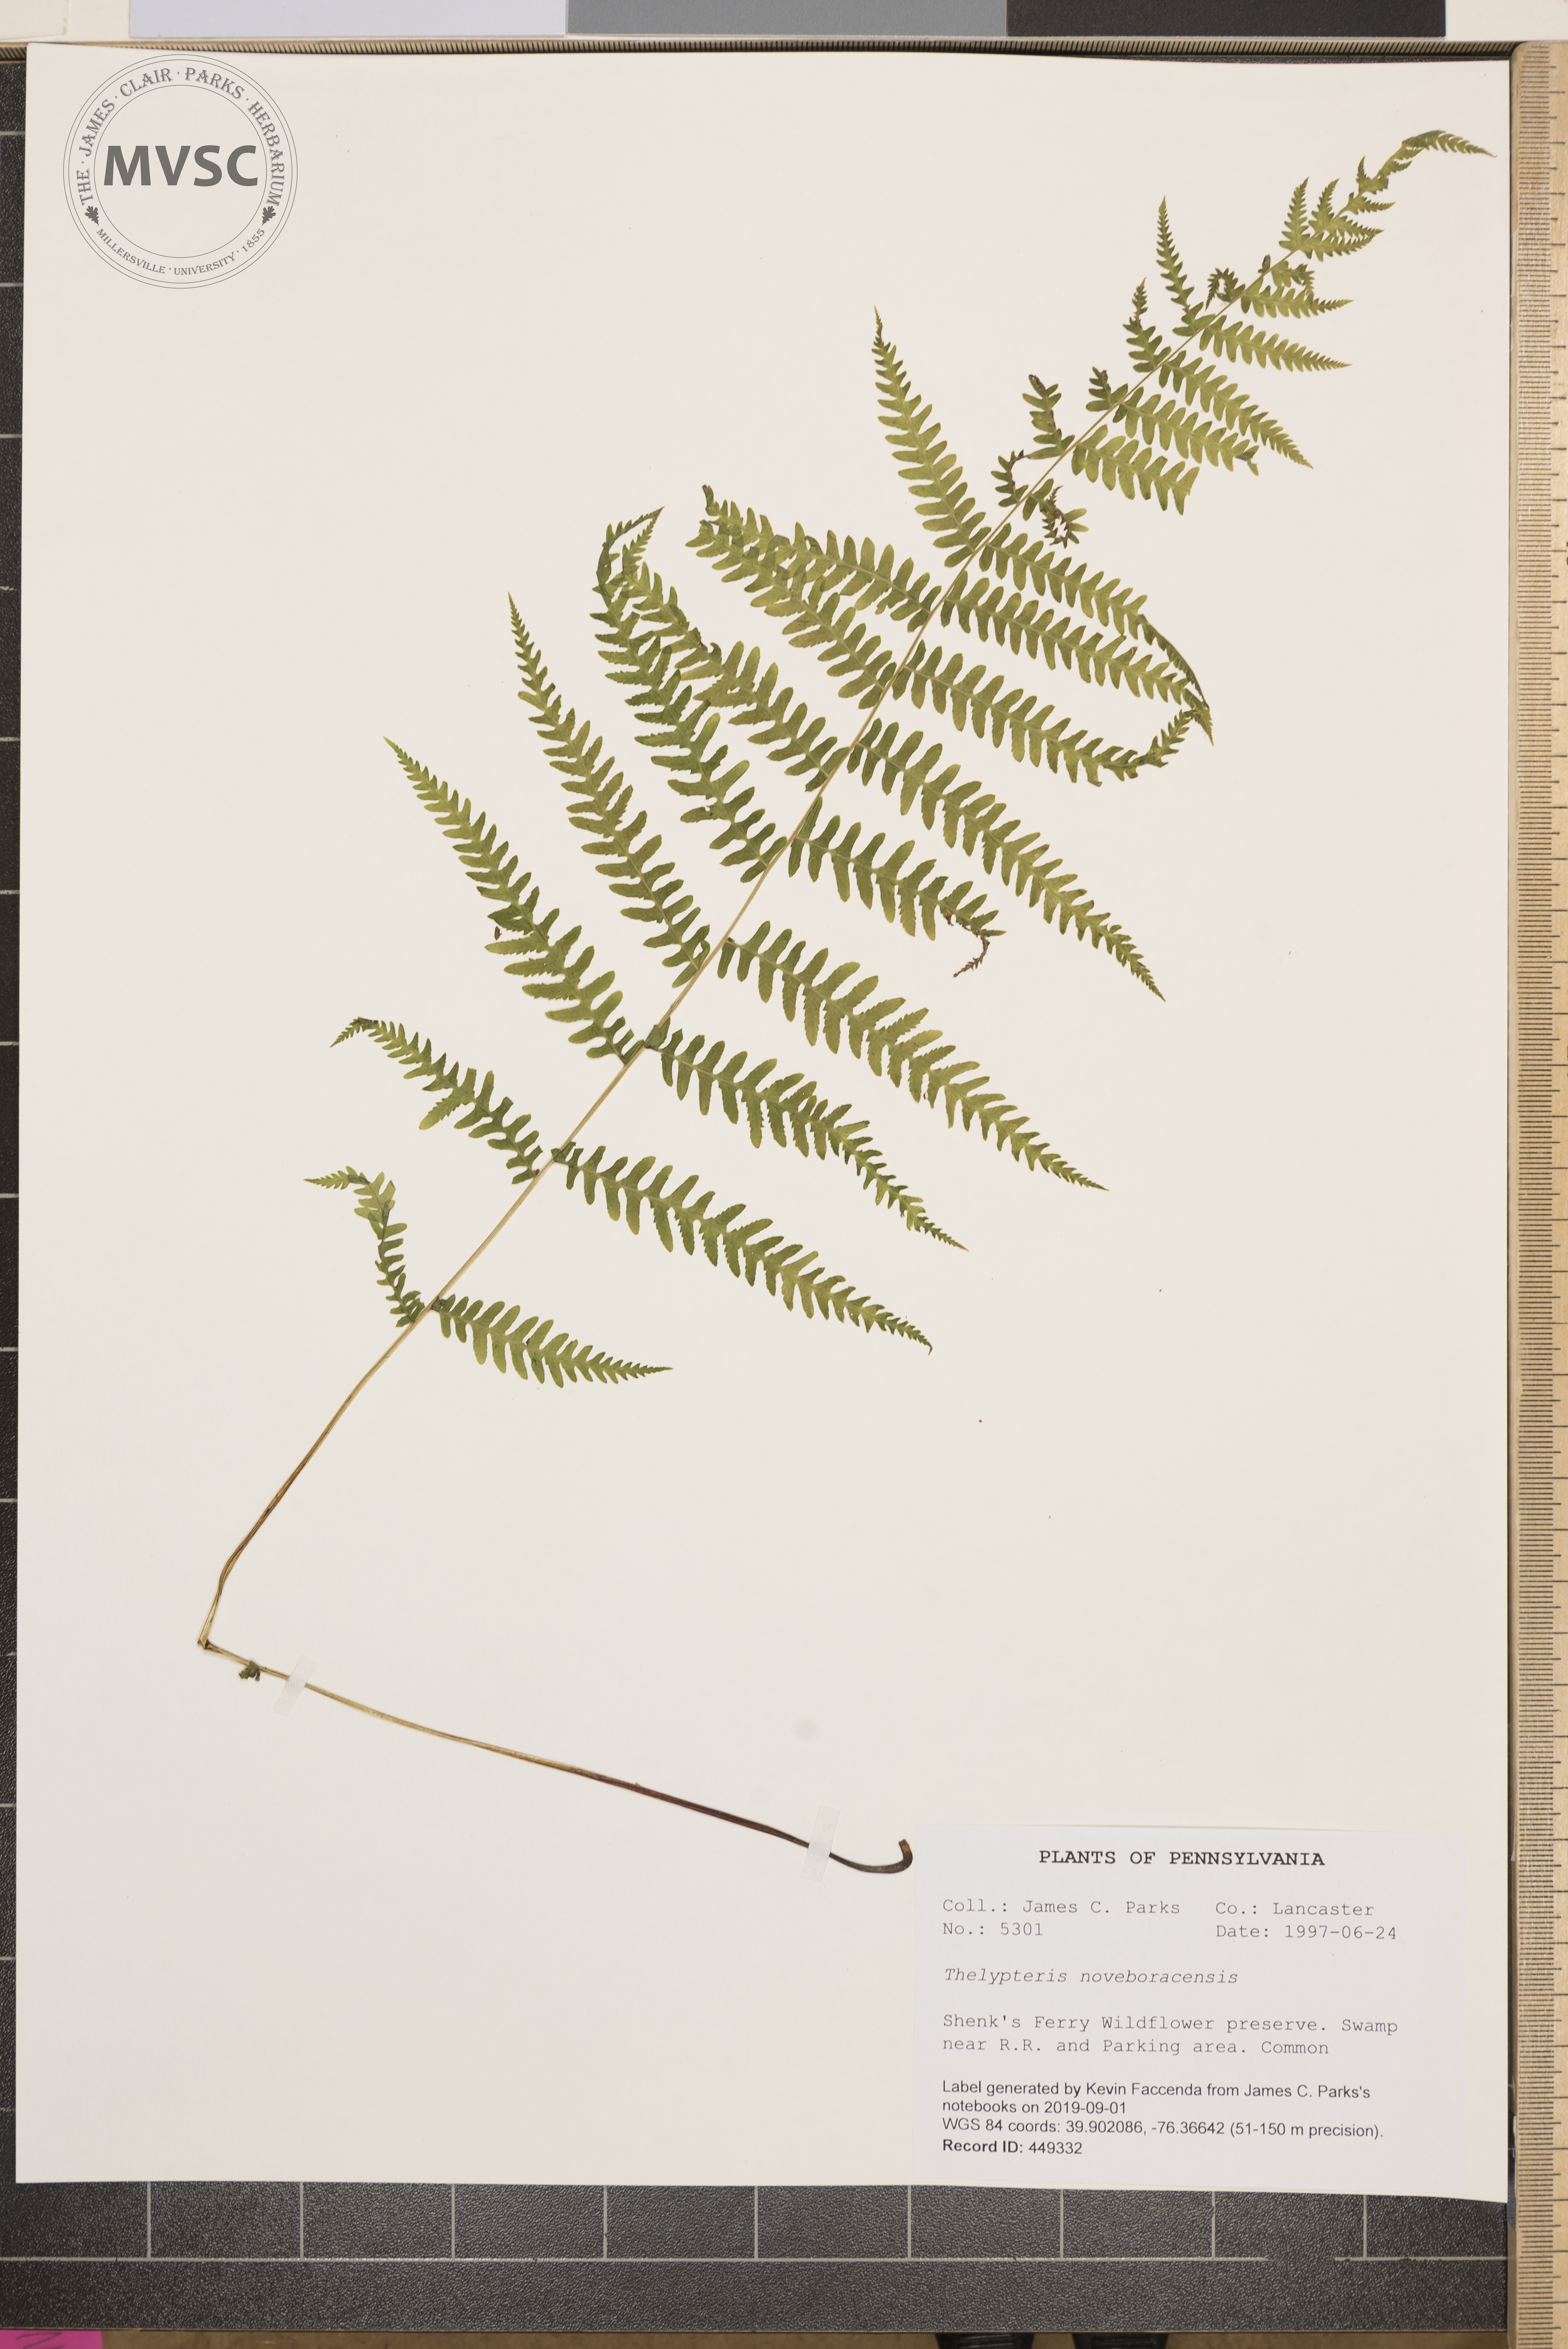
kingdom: Plantae
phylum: Tracheophyta
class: Polypodiopsida
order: Polypodiales
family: Thelypteridaceae
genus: Amauropelta
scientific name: Amauropelta noveboracensis
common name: New york fern
